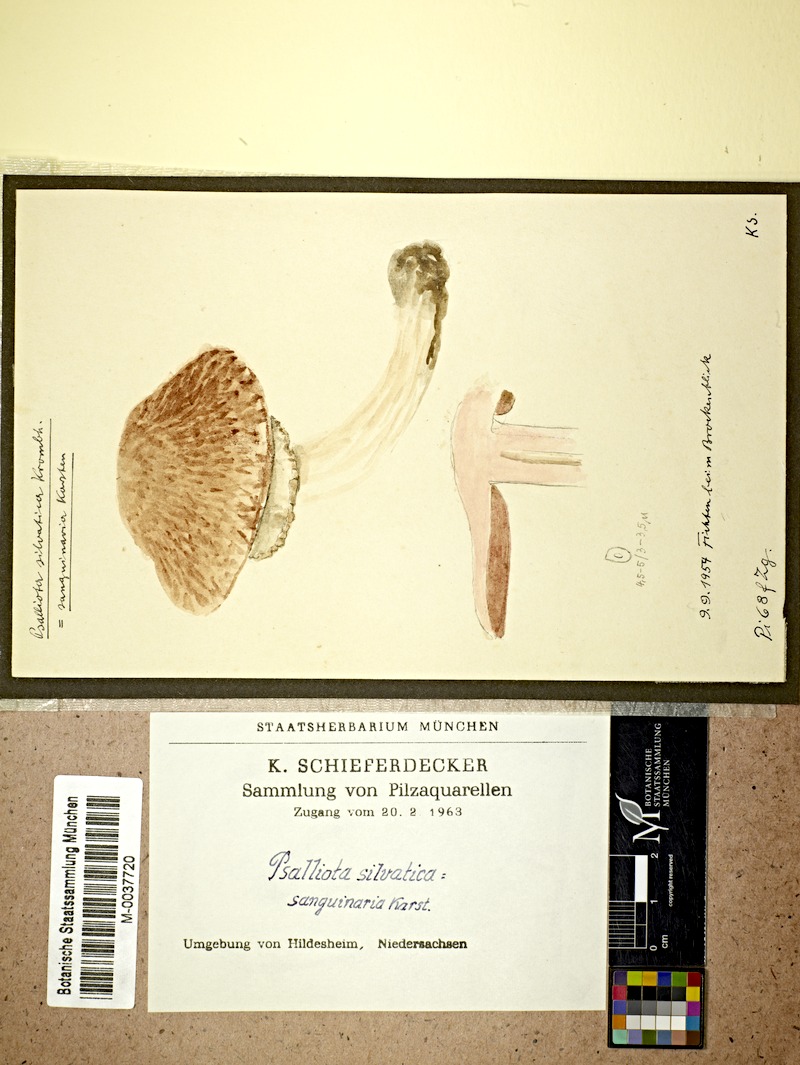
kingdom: Fungi
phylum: Basidiomycota
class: Agaricomycetes
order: Agaricales
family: Agaricaceae
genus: Agaricus
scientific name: Agaricus sylvaticus
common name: Blushing wood mushroom
